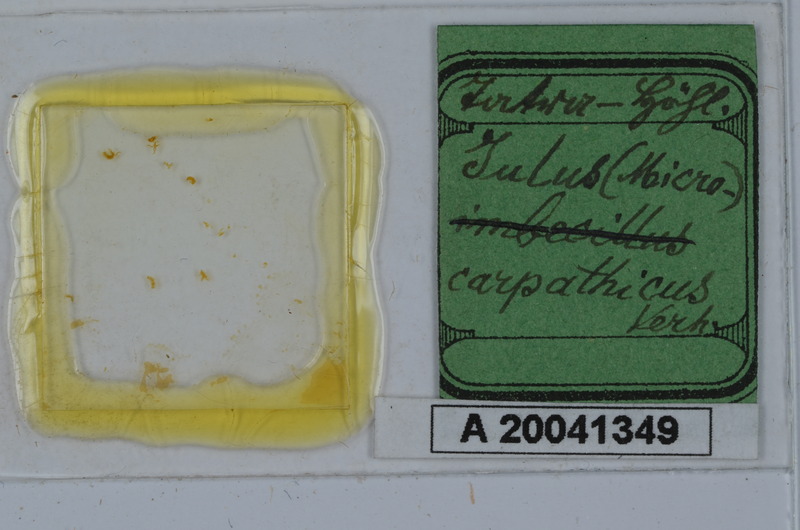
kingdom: Animalia
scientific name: Animalia
